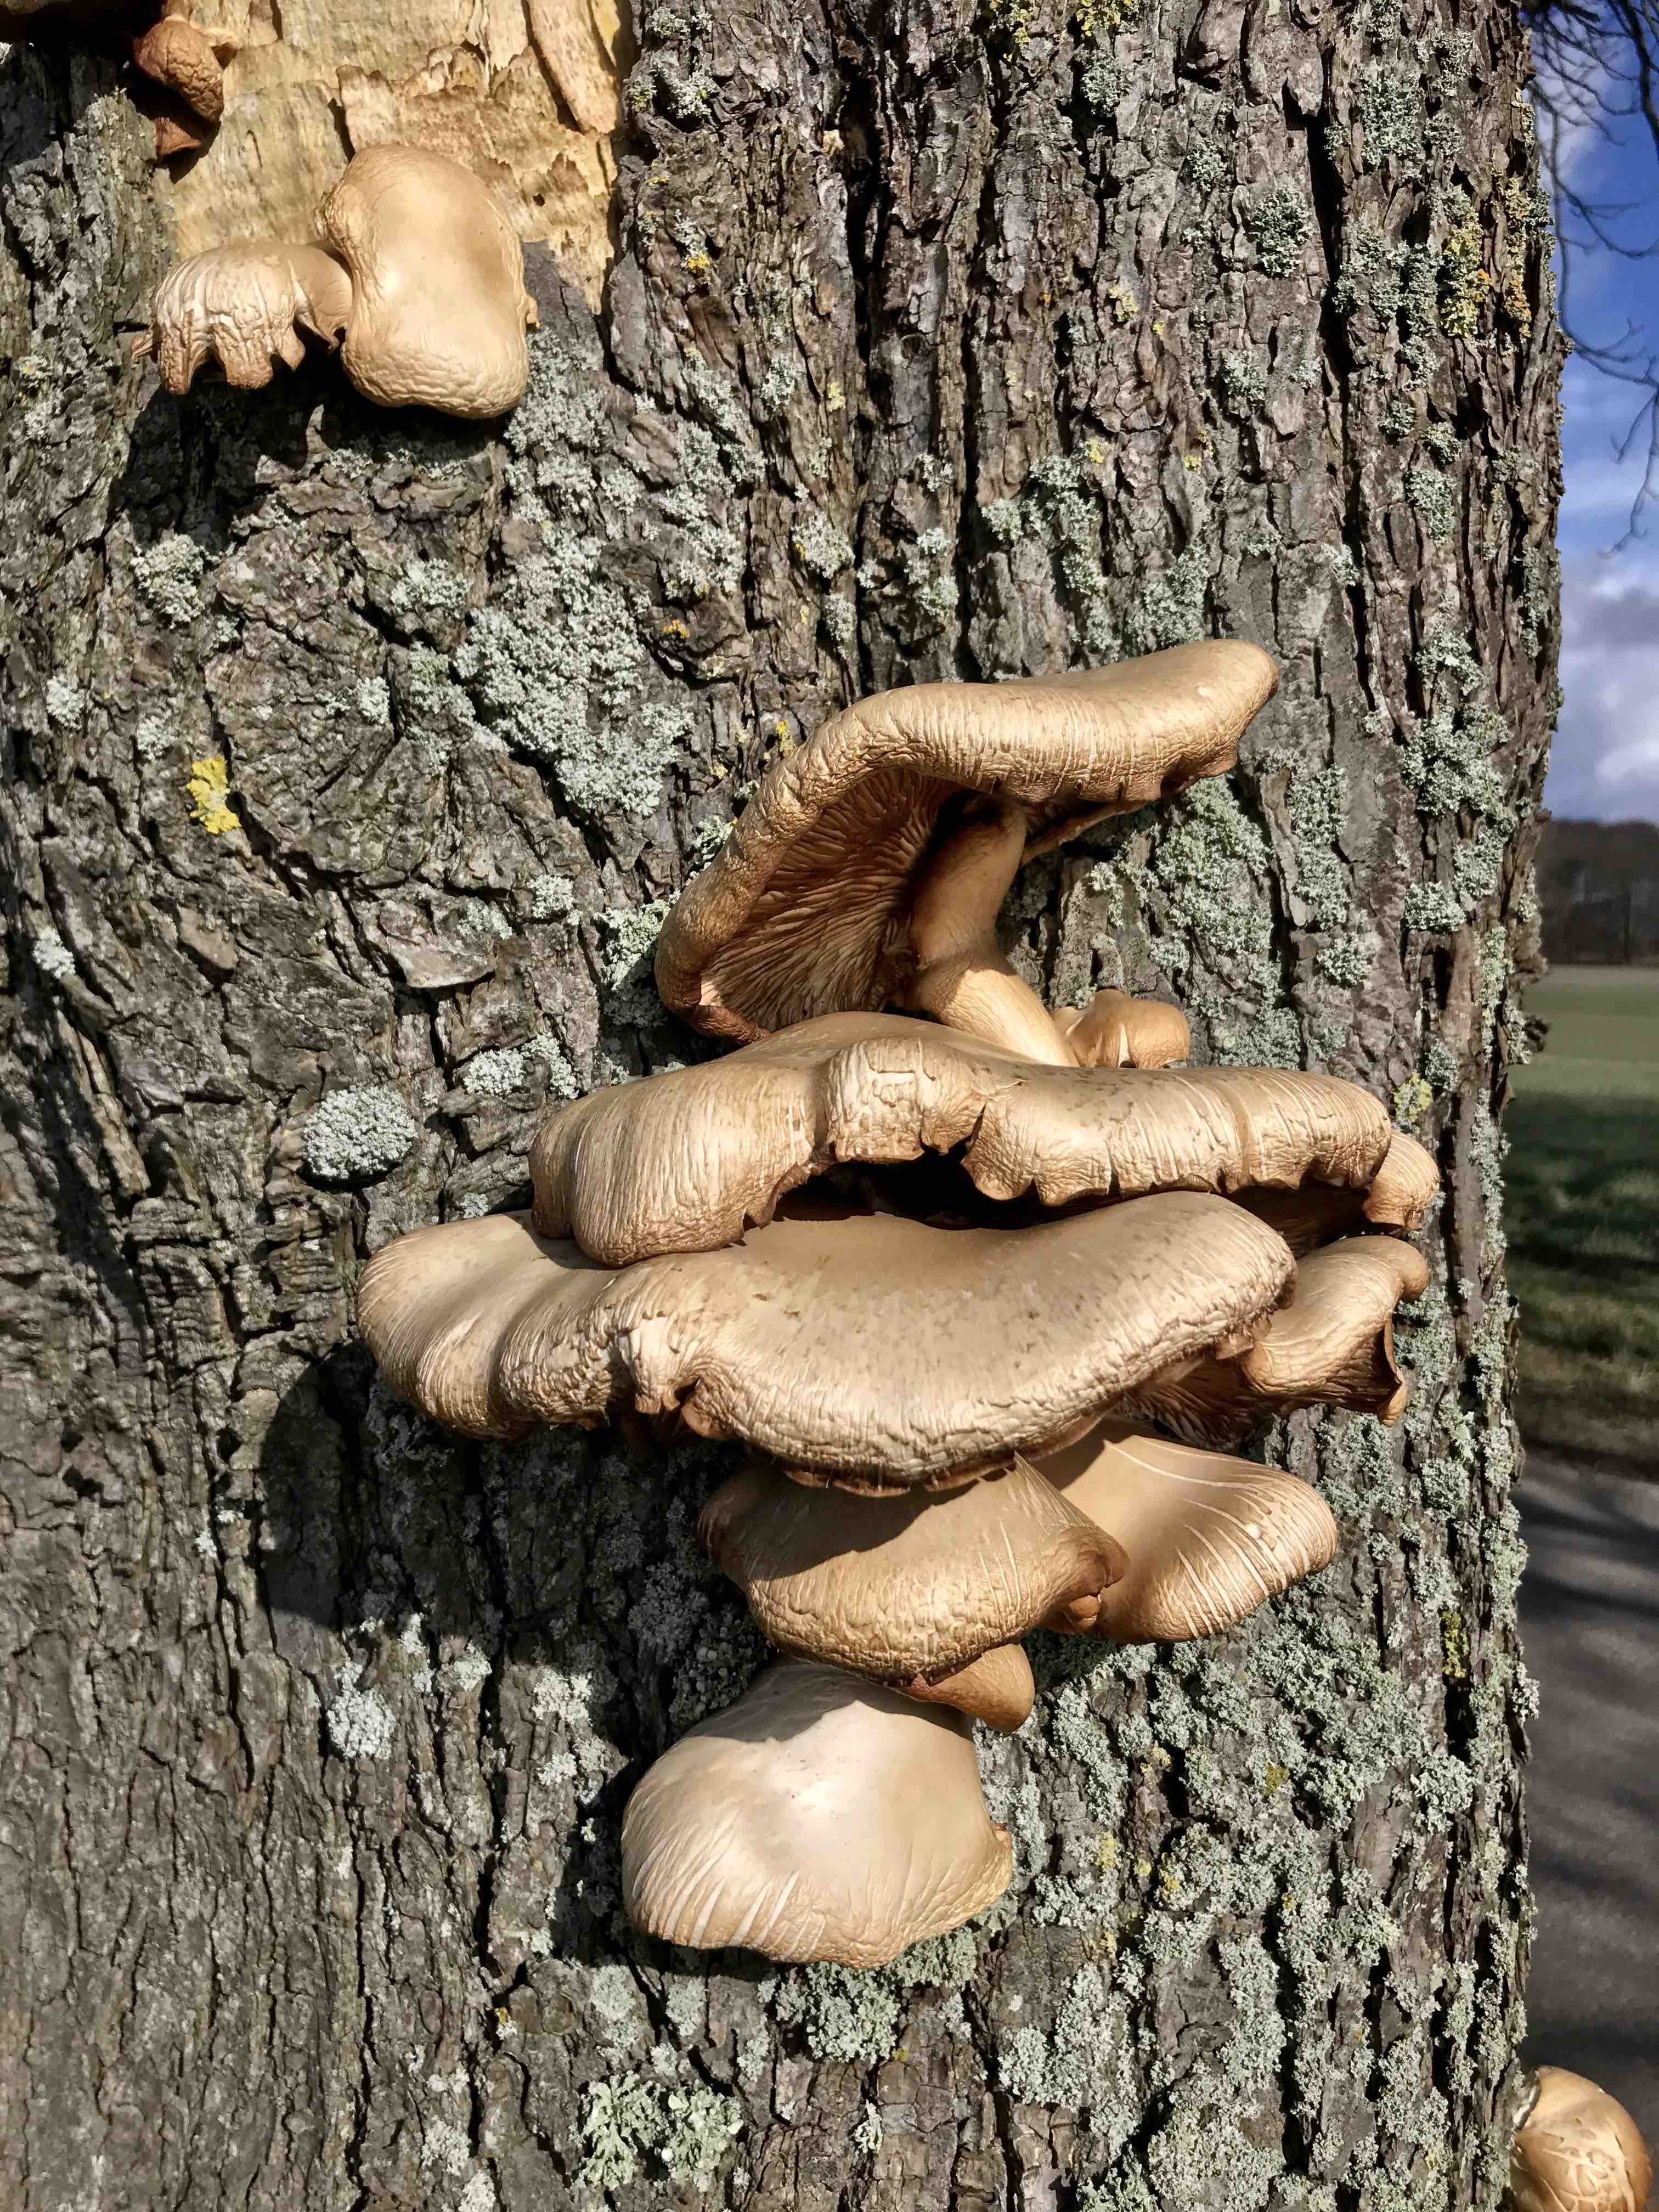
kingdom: Fungi
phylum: Basidiomycota
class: Agaricomycetes
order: Agaricales
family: Pleurotaceae
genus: Pleurotus
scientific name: Pleurotus ostreatus
